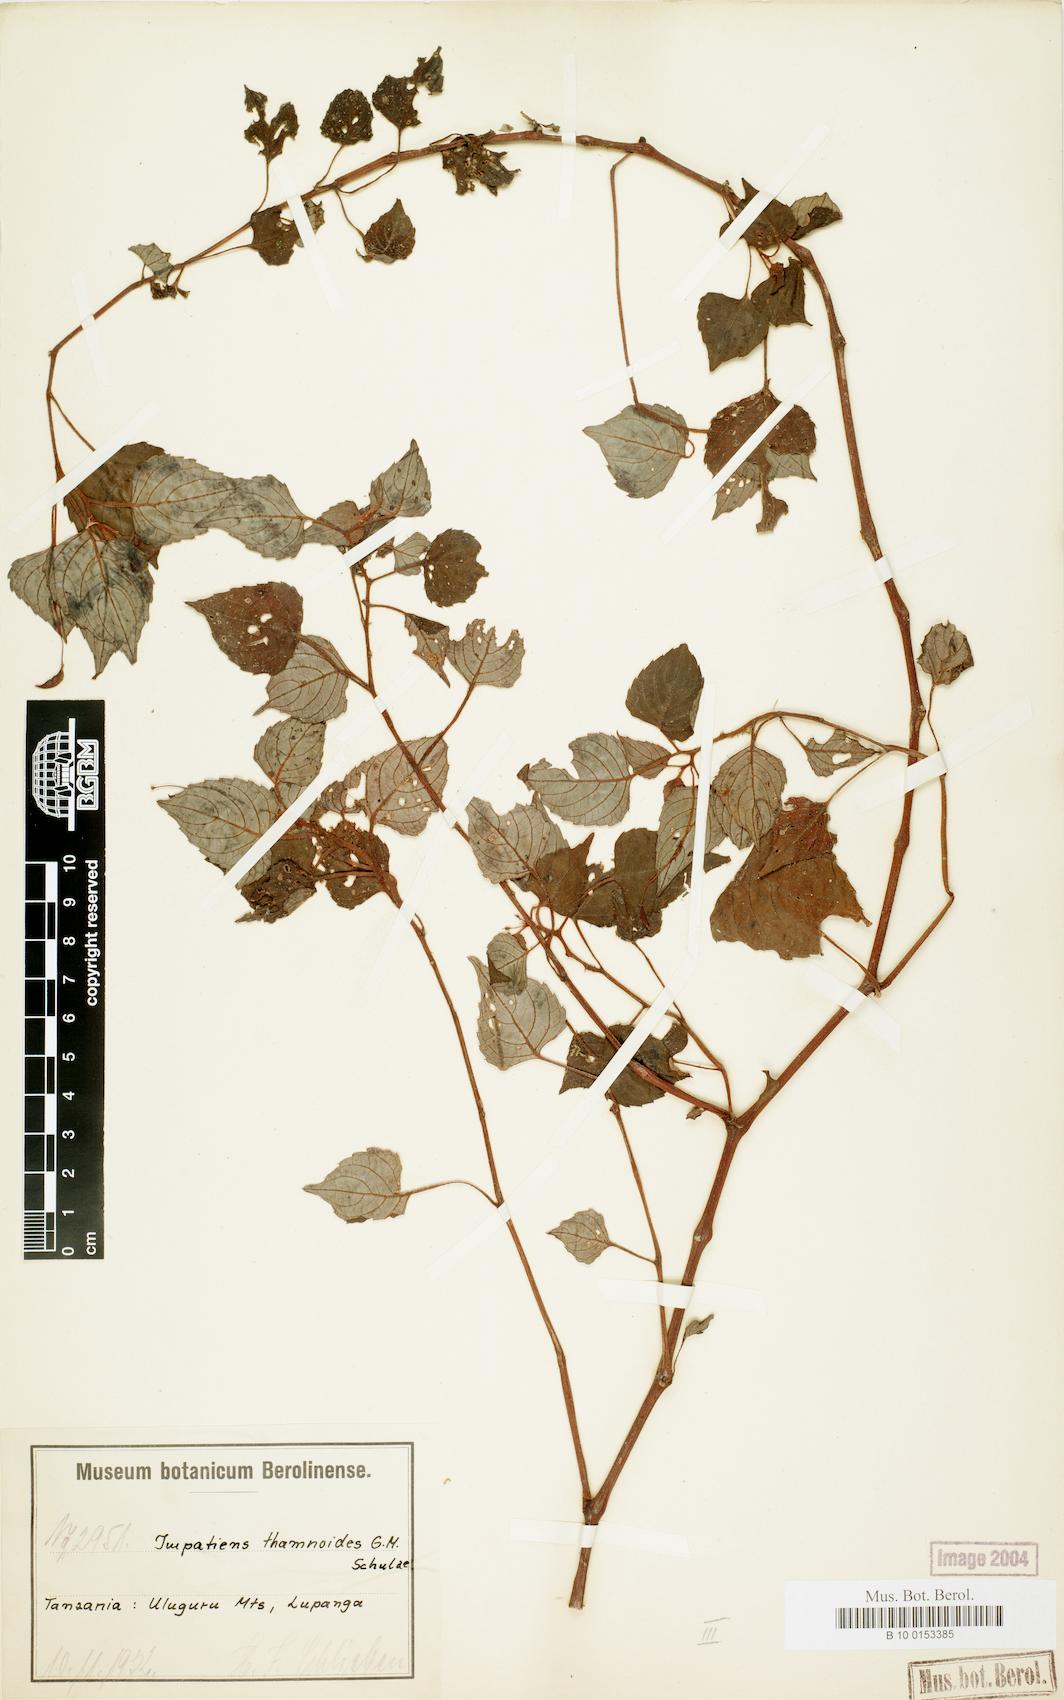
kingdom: Plantae
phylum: Tracheophyta
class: Magnoliopsida
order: Ericales
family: Balsaminaceae
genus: Impatiens
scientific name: Impatiens thamnoidea
